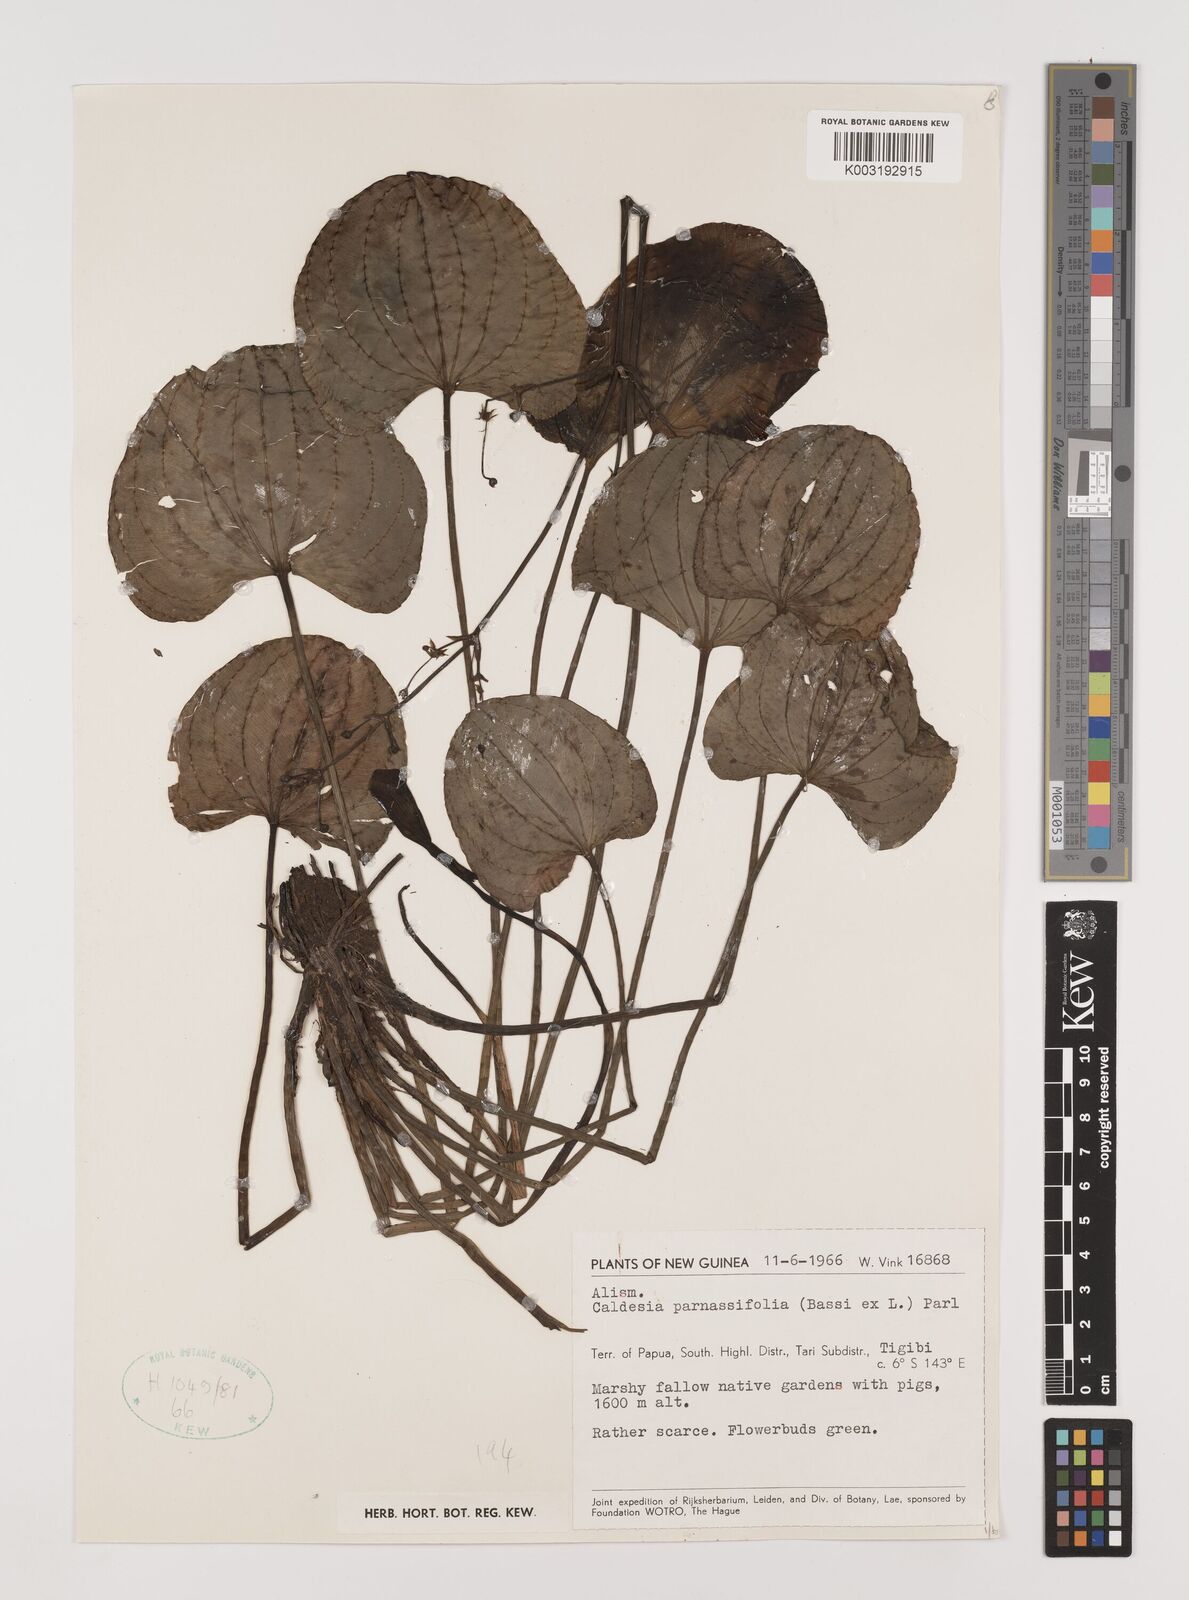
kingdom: Plantae
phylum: Tracheophyta
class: Liliopsida
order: Alismatales
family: Alismataceae
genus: Caldesia
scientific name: Caldesia parnassifolia
